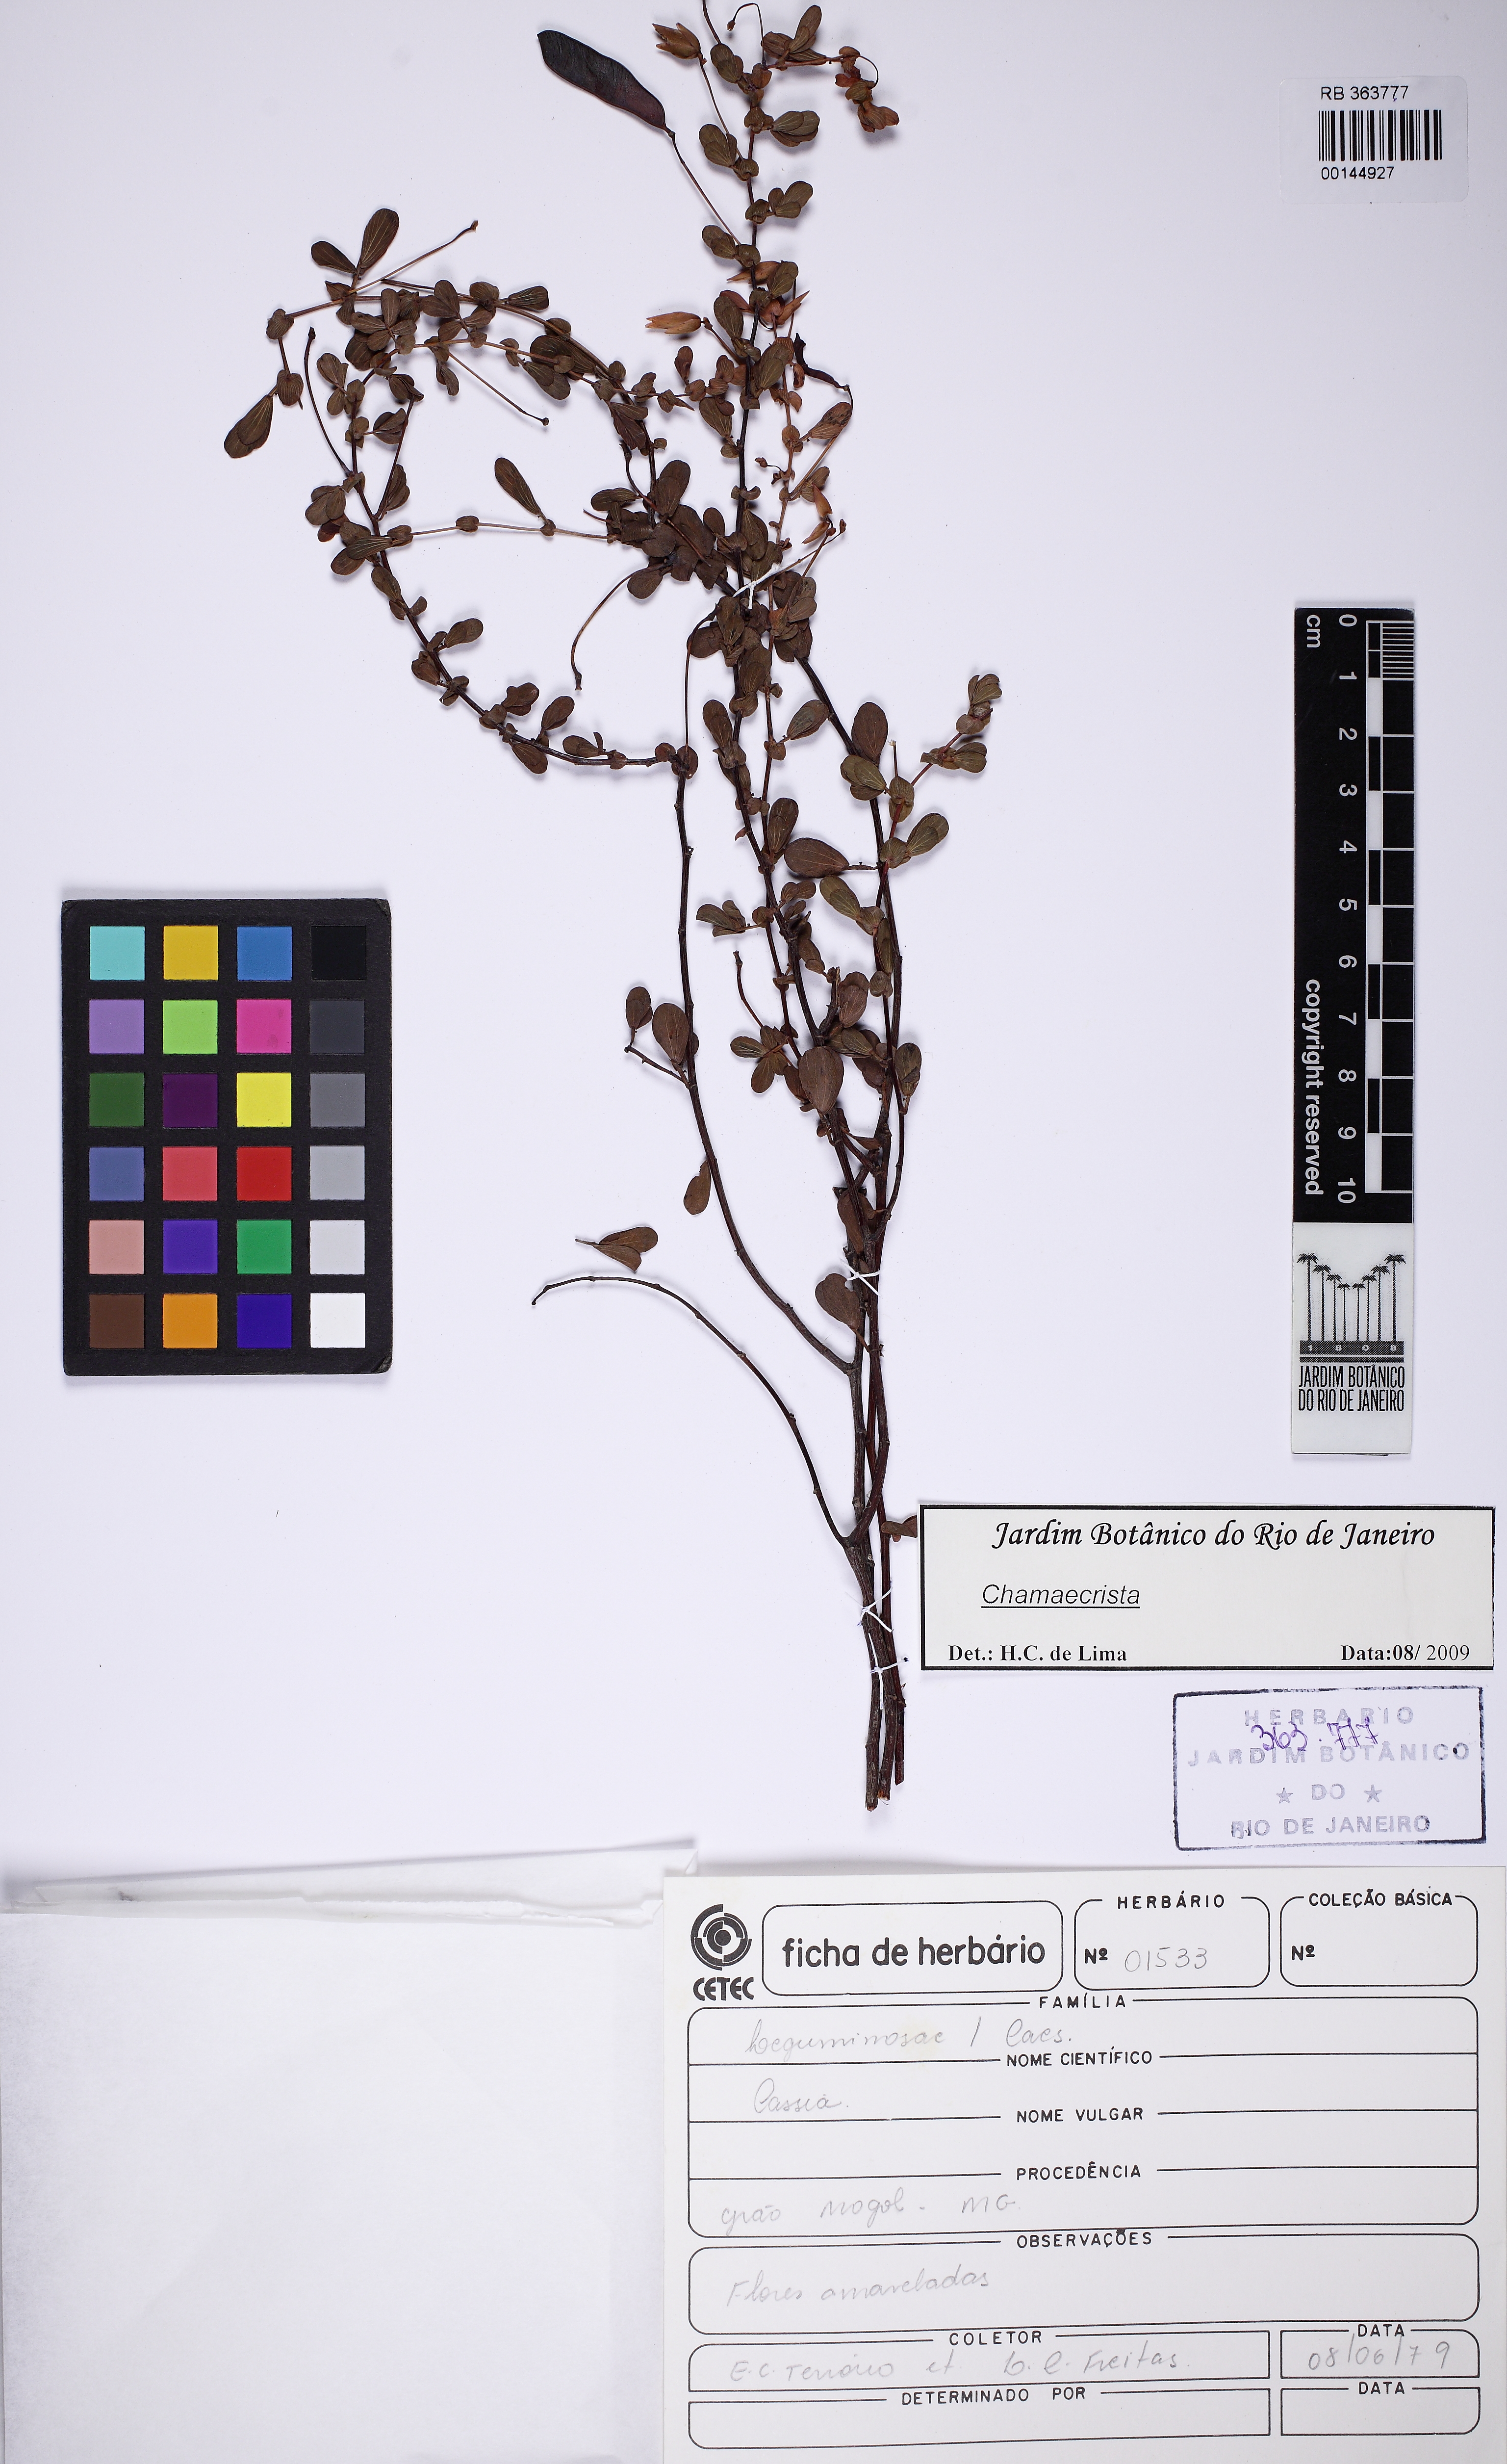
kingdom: Plantae
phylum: Tracheophyta
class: Magnoliopsida
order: Fabales
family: Fabaceae
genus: Chamaecrista
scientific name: Chamaecrista ramosa
